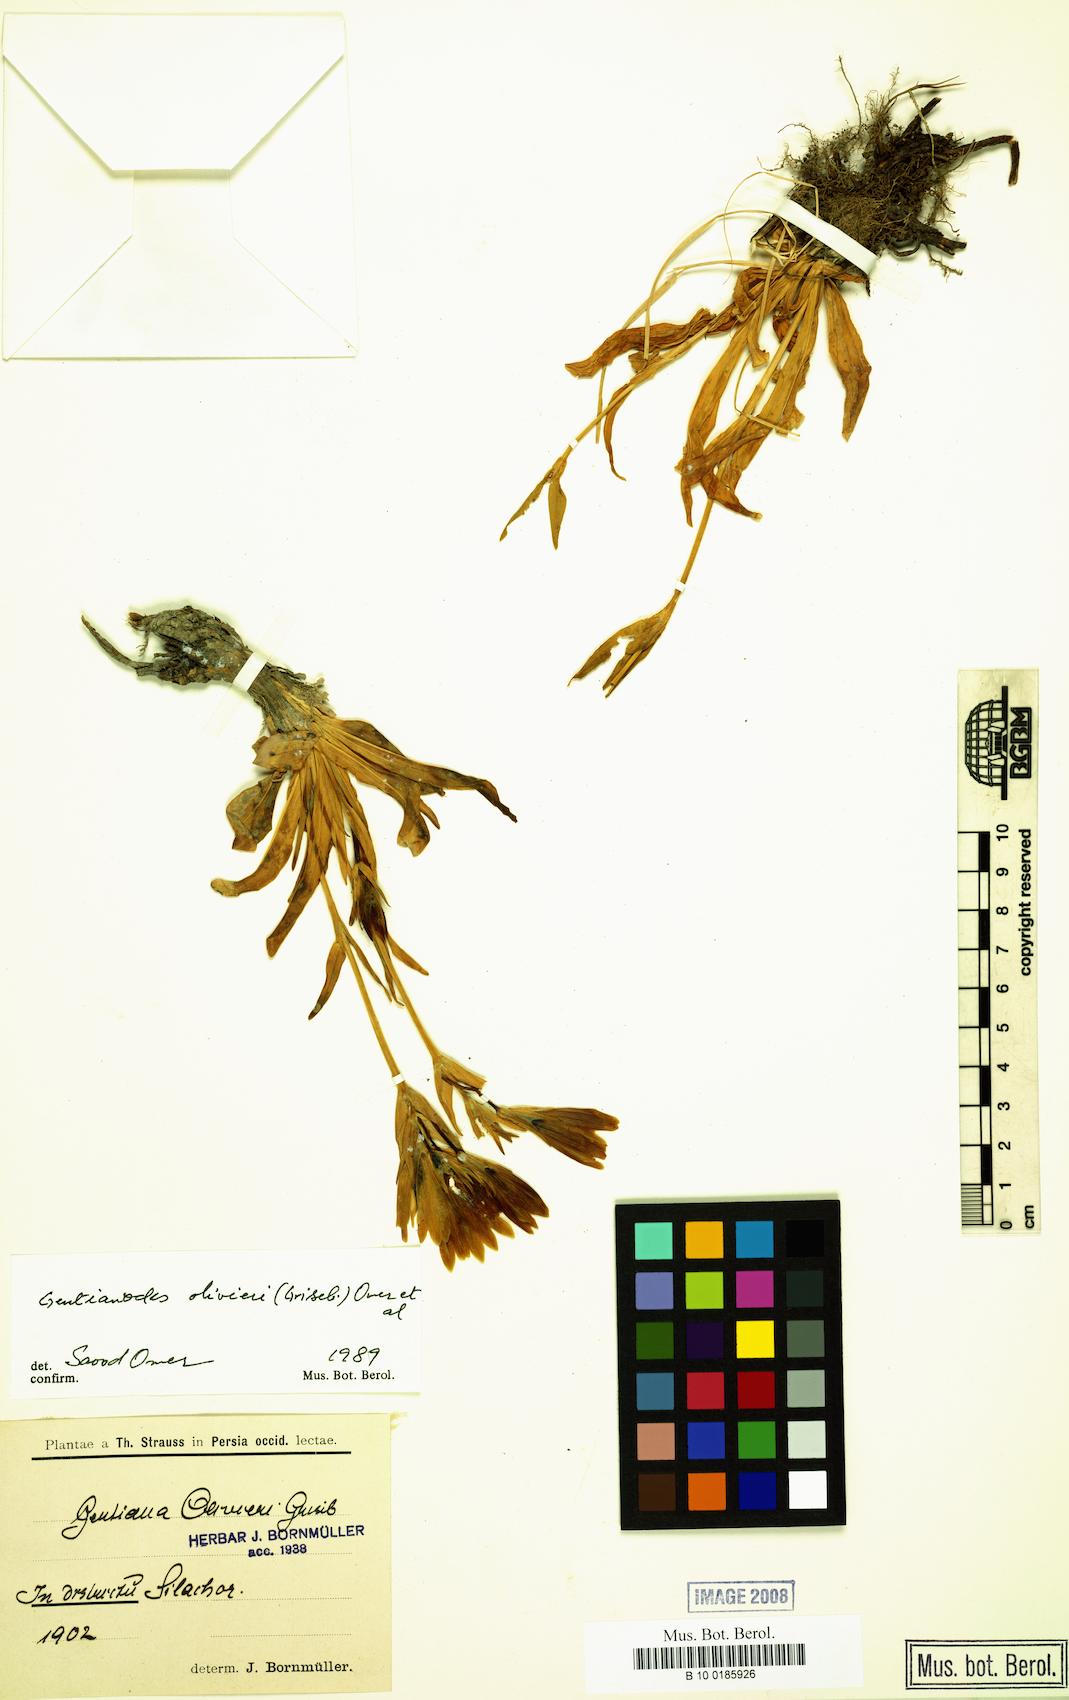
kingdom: Plantae
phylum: Tracheophyta
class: Magnoliopsida
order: Gentianales
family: Gentianaceae
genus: Gentiana
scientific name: Gentiana olivieri
